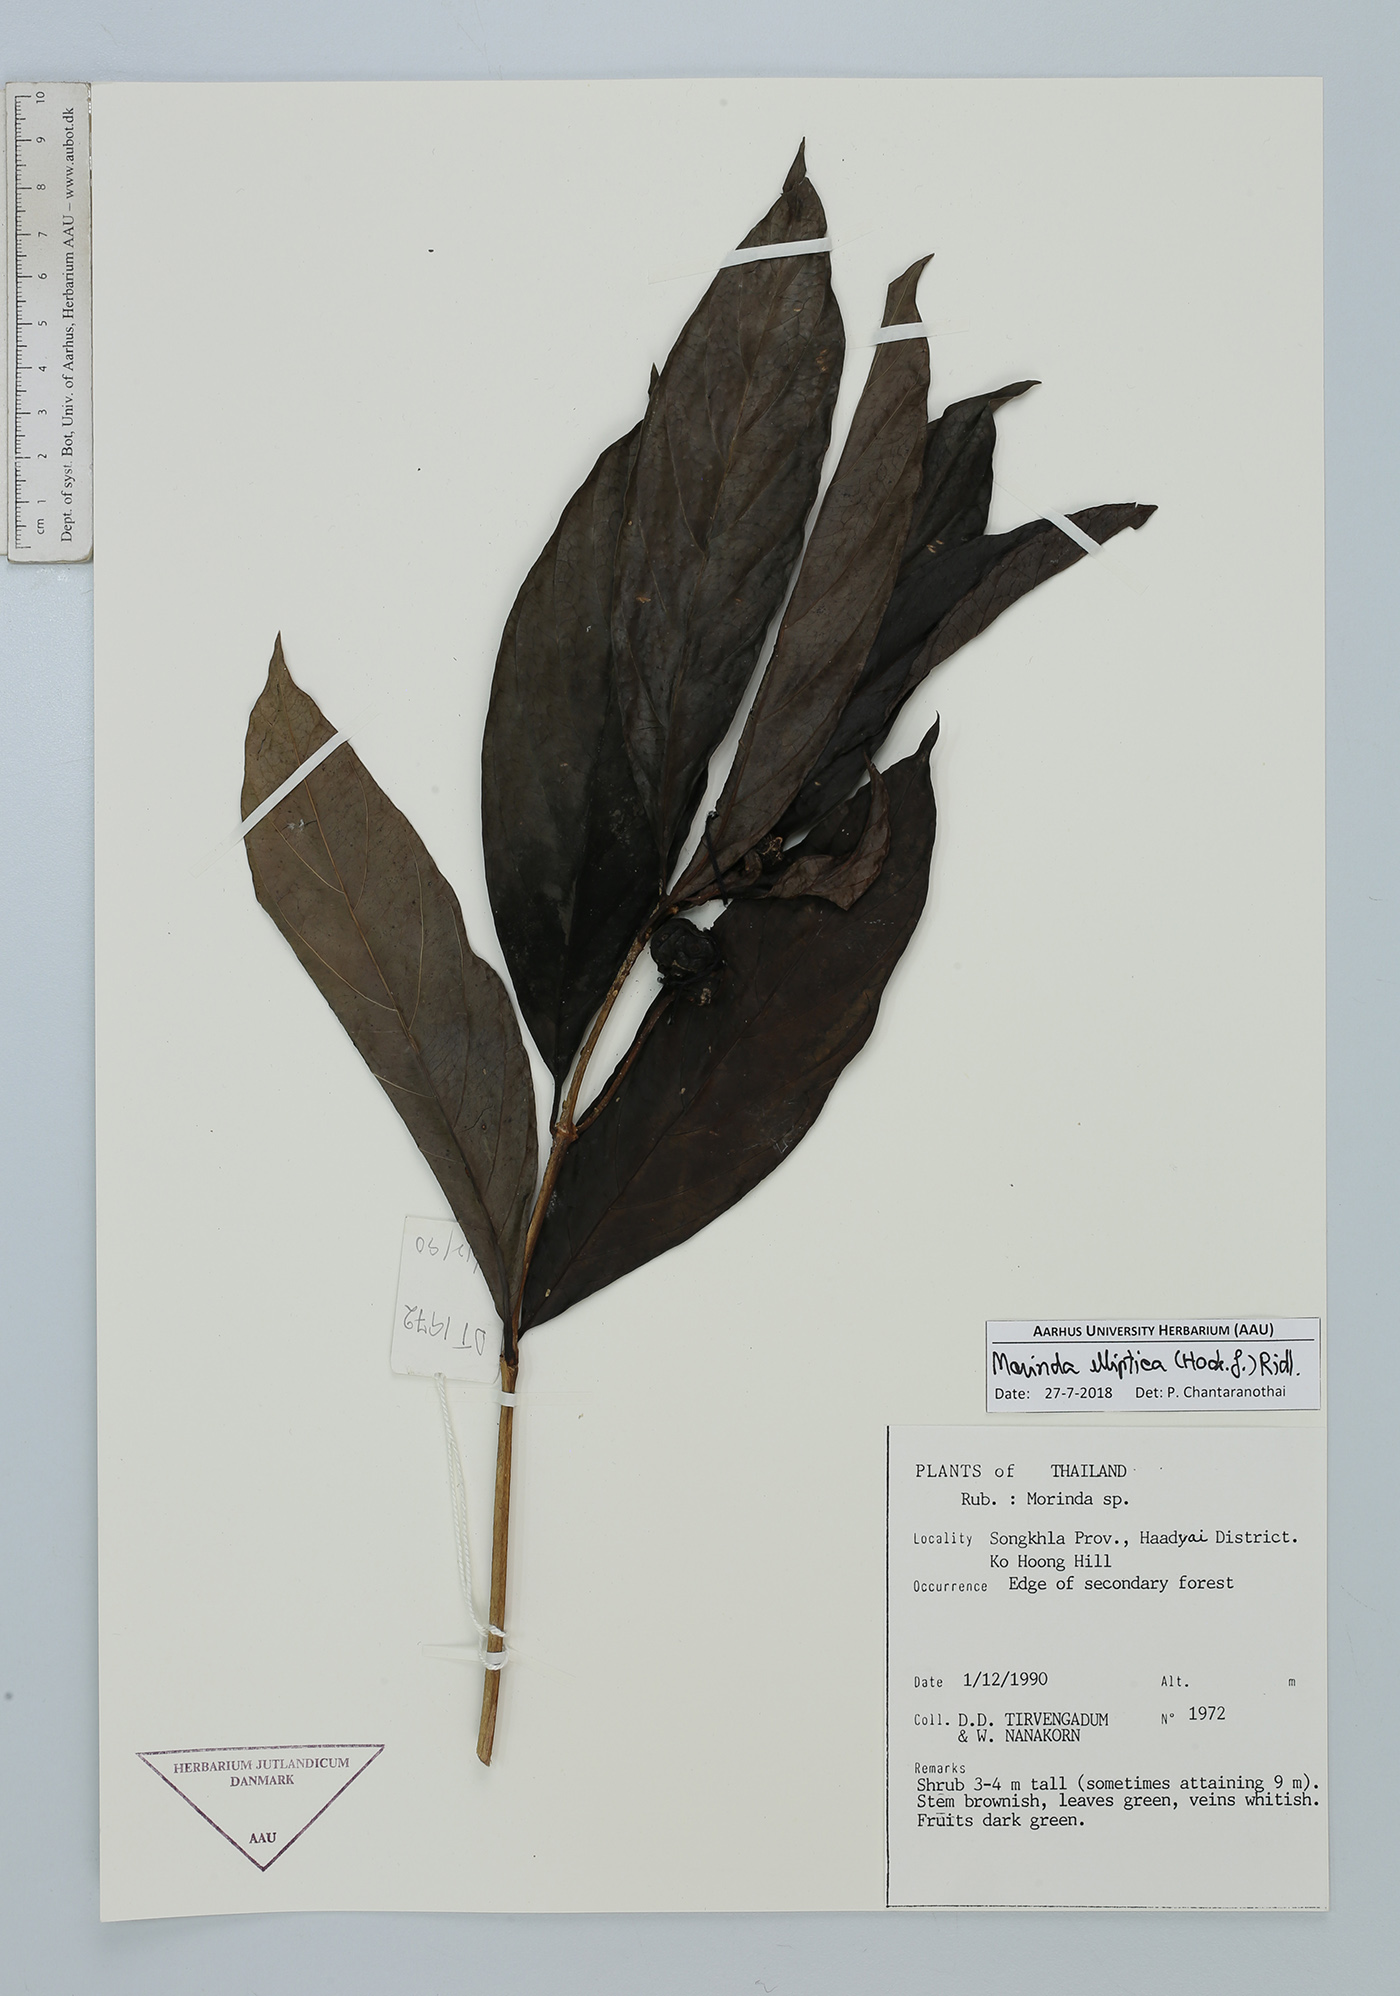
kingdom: Plantae
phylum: Tracheophyta
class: Magnoliopsida
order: Gentianales
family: Rubiaceae
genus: Morinda
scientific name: Morinda elliptica
